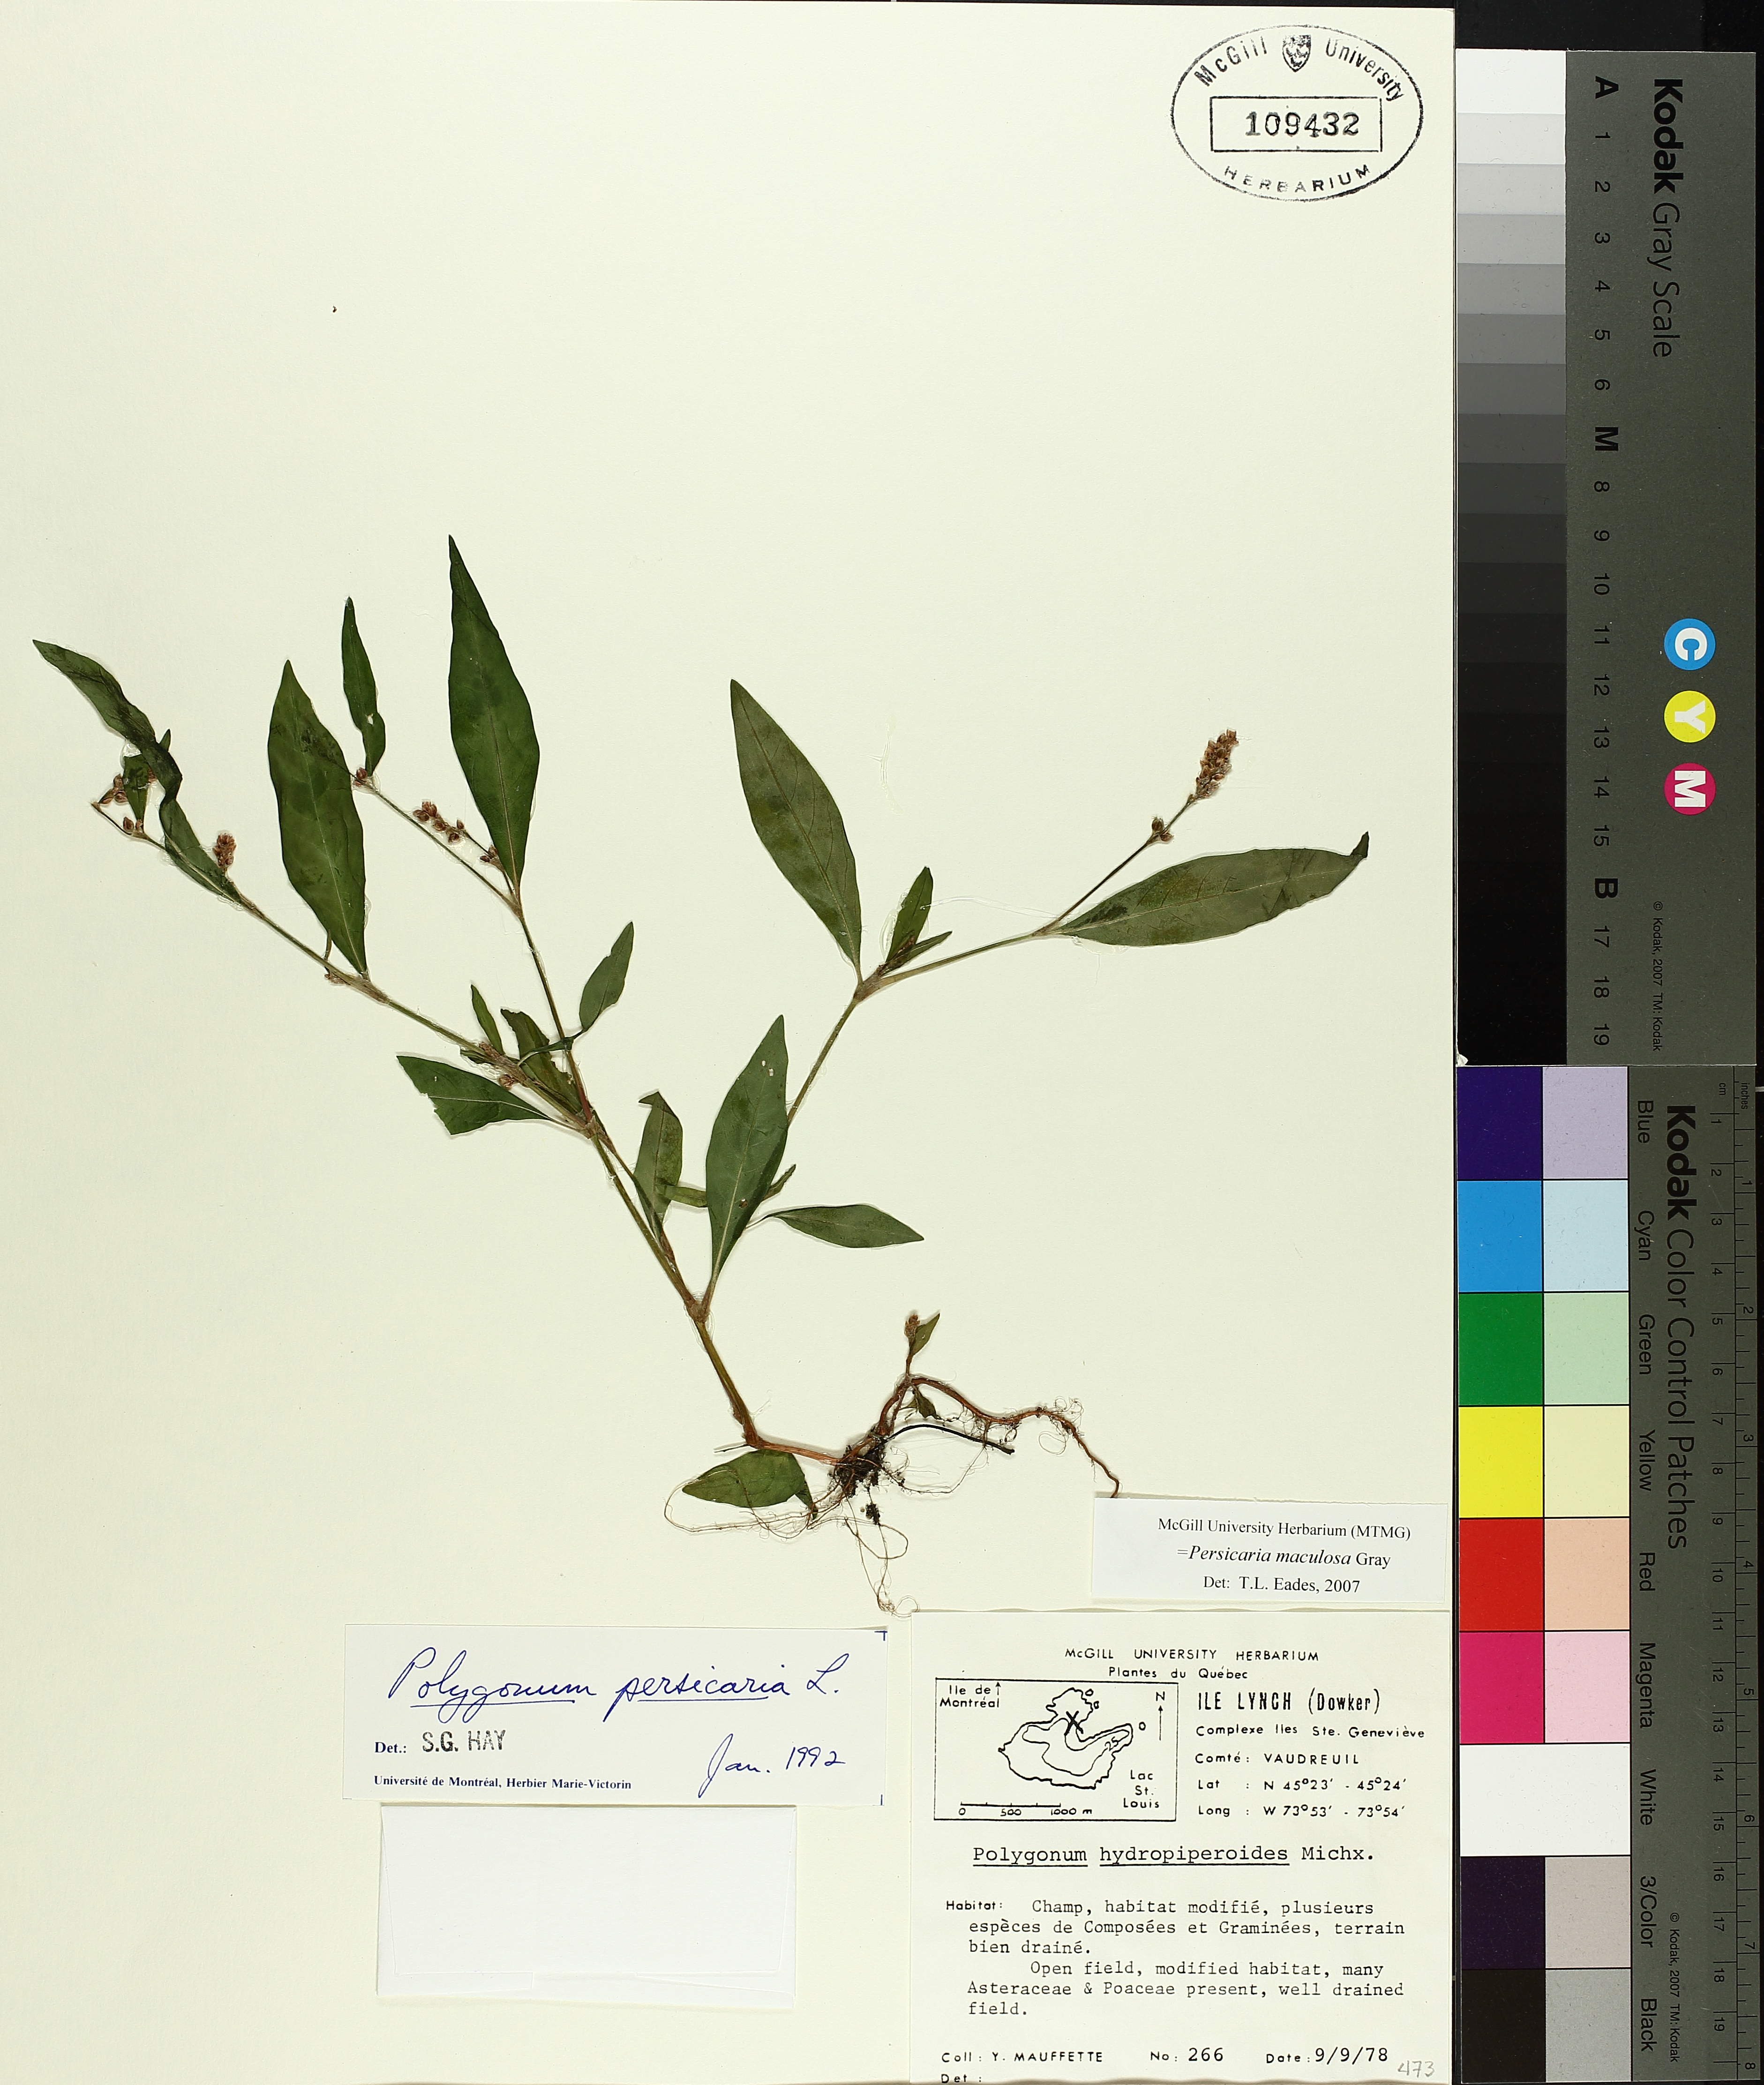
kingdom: Plantae
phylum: Tracheophyta
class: Magnoliopsida
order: Caryophyllales
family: Polygonaceae
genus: Persicaria
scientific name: Persicaria maculosa
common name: Redshank
